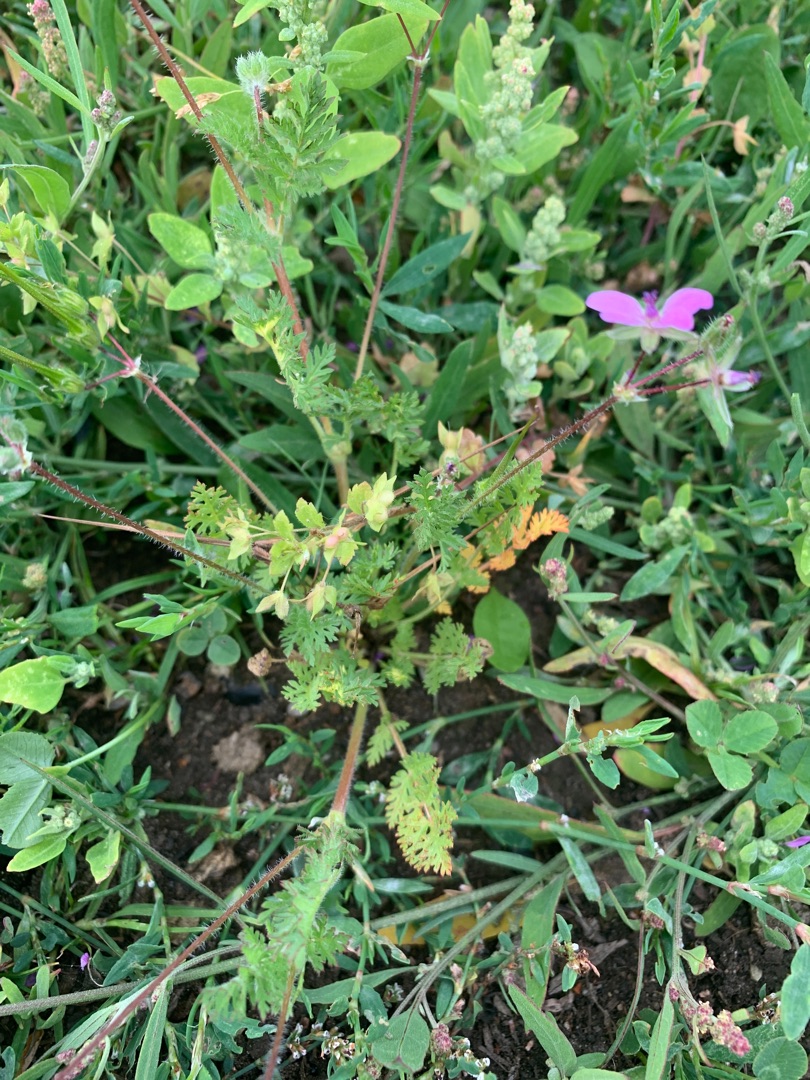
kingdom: Plantae
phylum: Tracheophyta
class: Magnoliopsida
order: Geraniales
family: Geraniaceae
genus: Erodium
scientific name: Erodium cicutarium
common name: Hejrenæb
